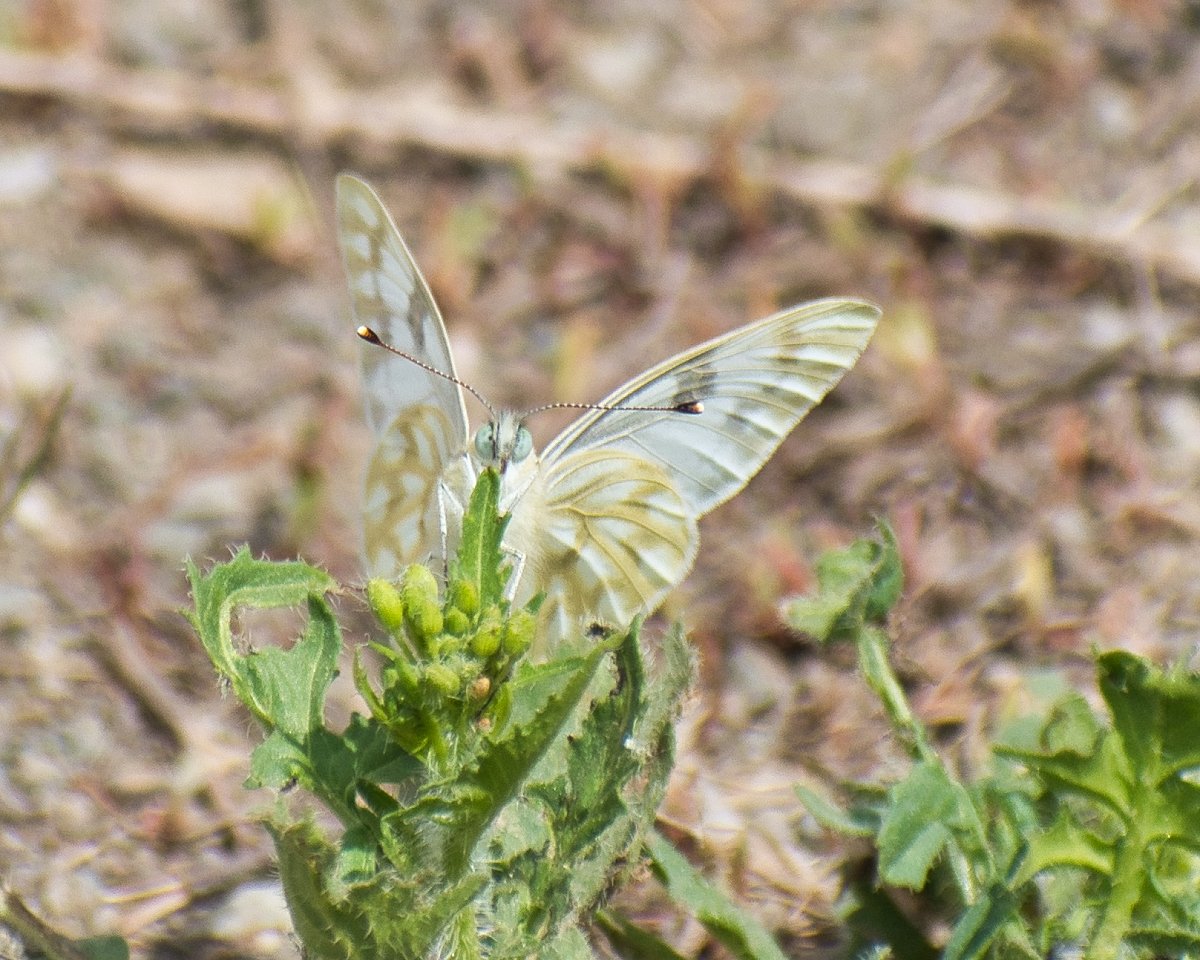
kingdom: Animalia
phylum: Arthropoda
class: Insecta
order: Lepidoptera
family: Pieridae
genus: Pontia
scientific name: Pontia occidentalis
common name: Western White
